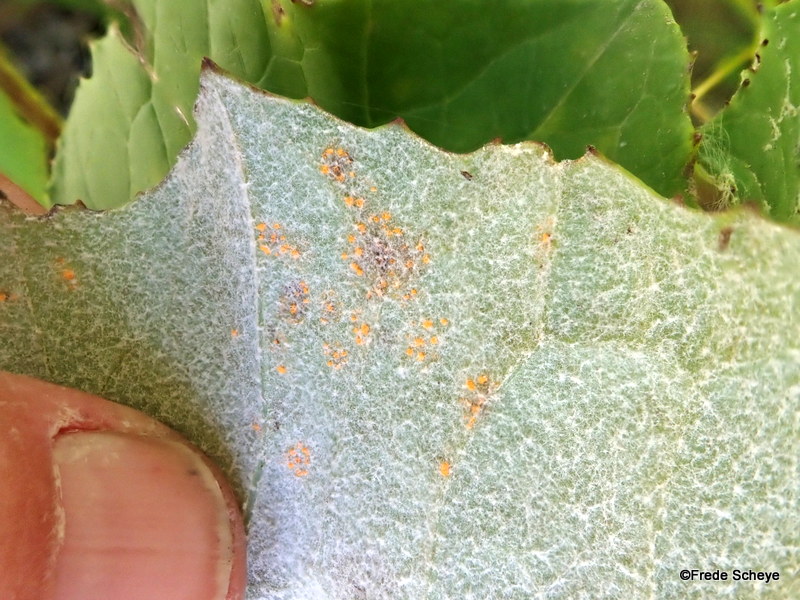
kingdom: Fungi
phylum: Basidiomycota
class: Pucciniomycetes
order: Pucciniales
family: Coleosporiaceae
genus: Coleosporium
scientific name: Coleosporium tussilaginis
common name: almindelig fyrrenålerust
